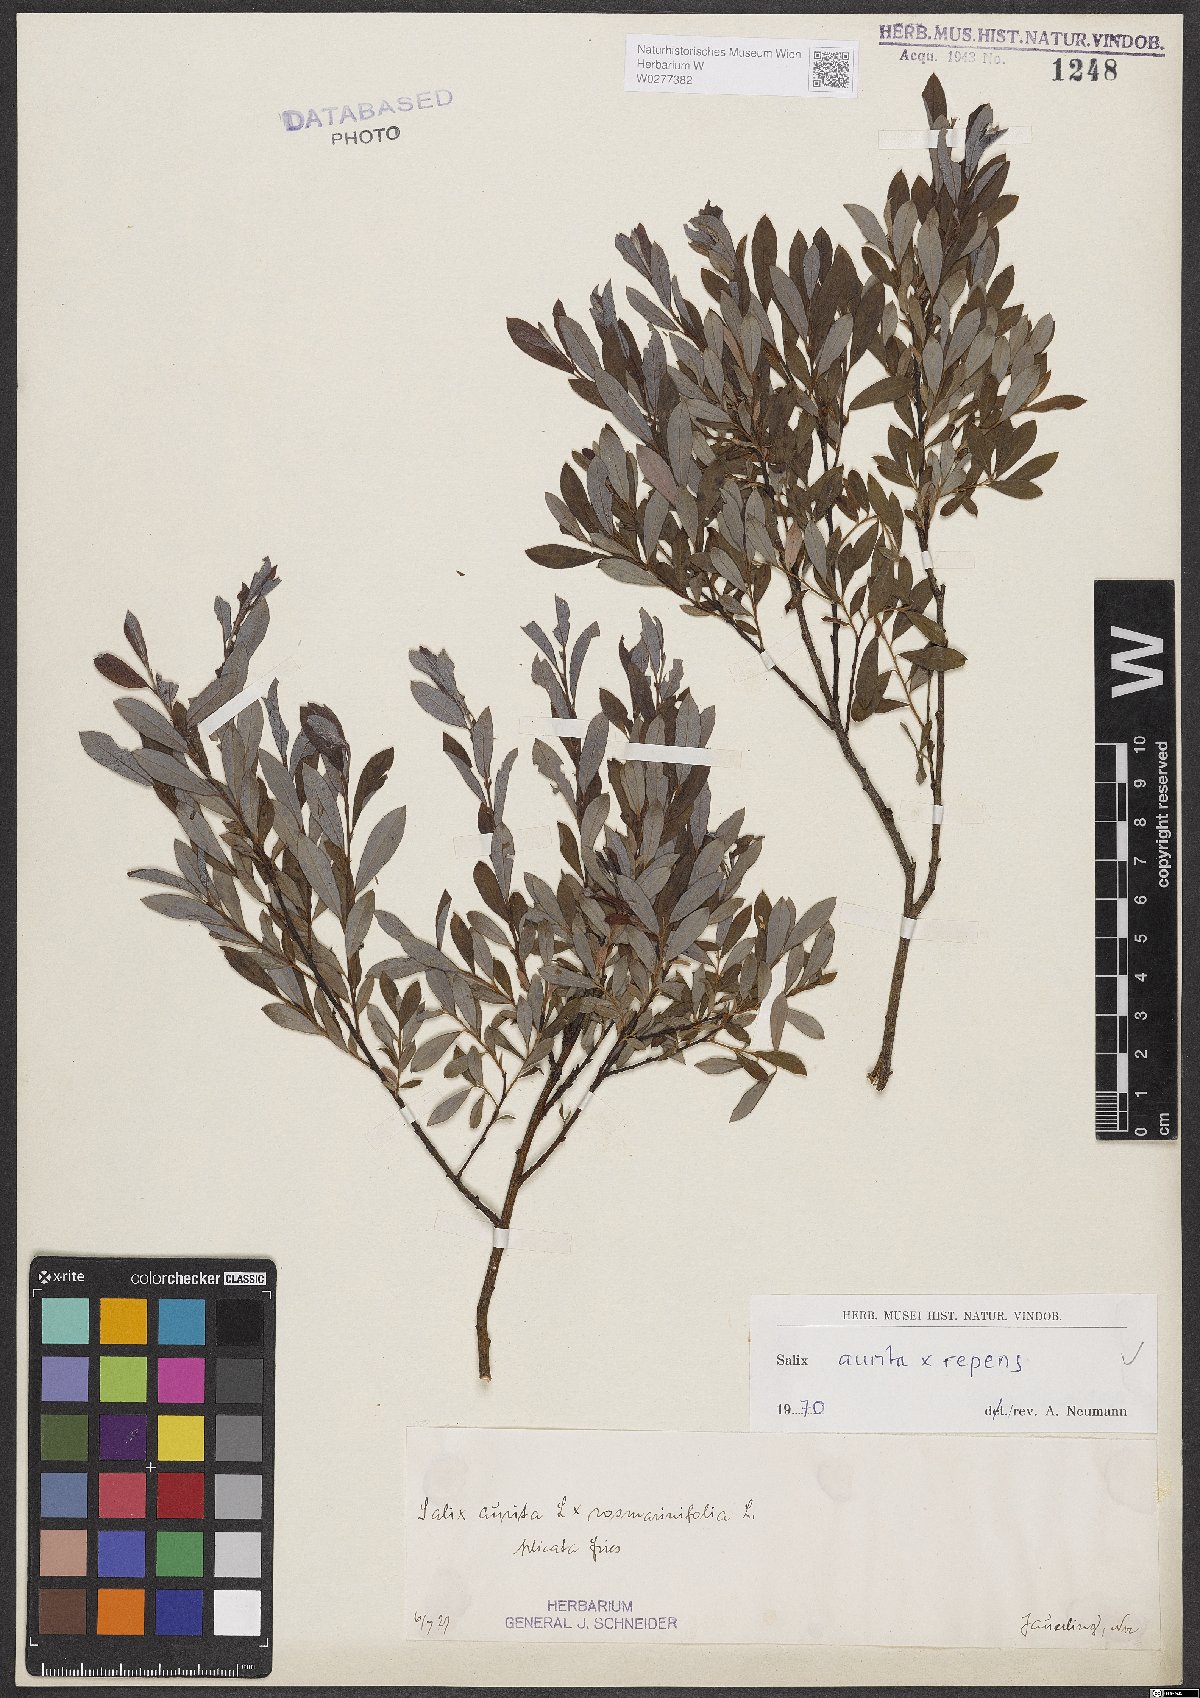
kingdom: Plantae
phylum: Tracheophyta
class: Magnoliopsida
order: Malpighiales
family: Salicaceae
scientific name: Salicaceae
